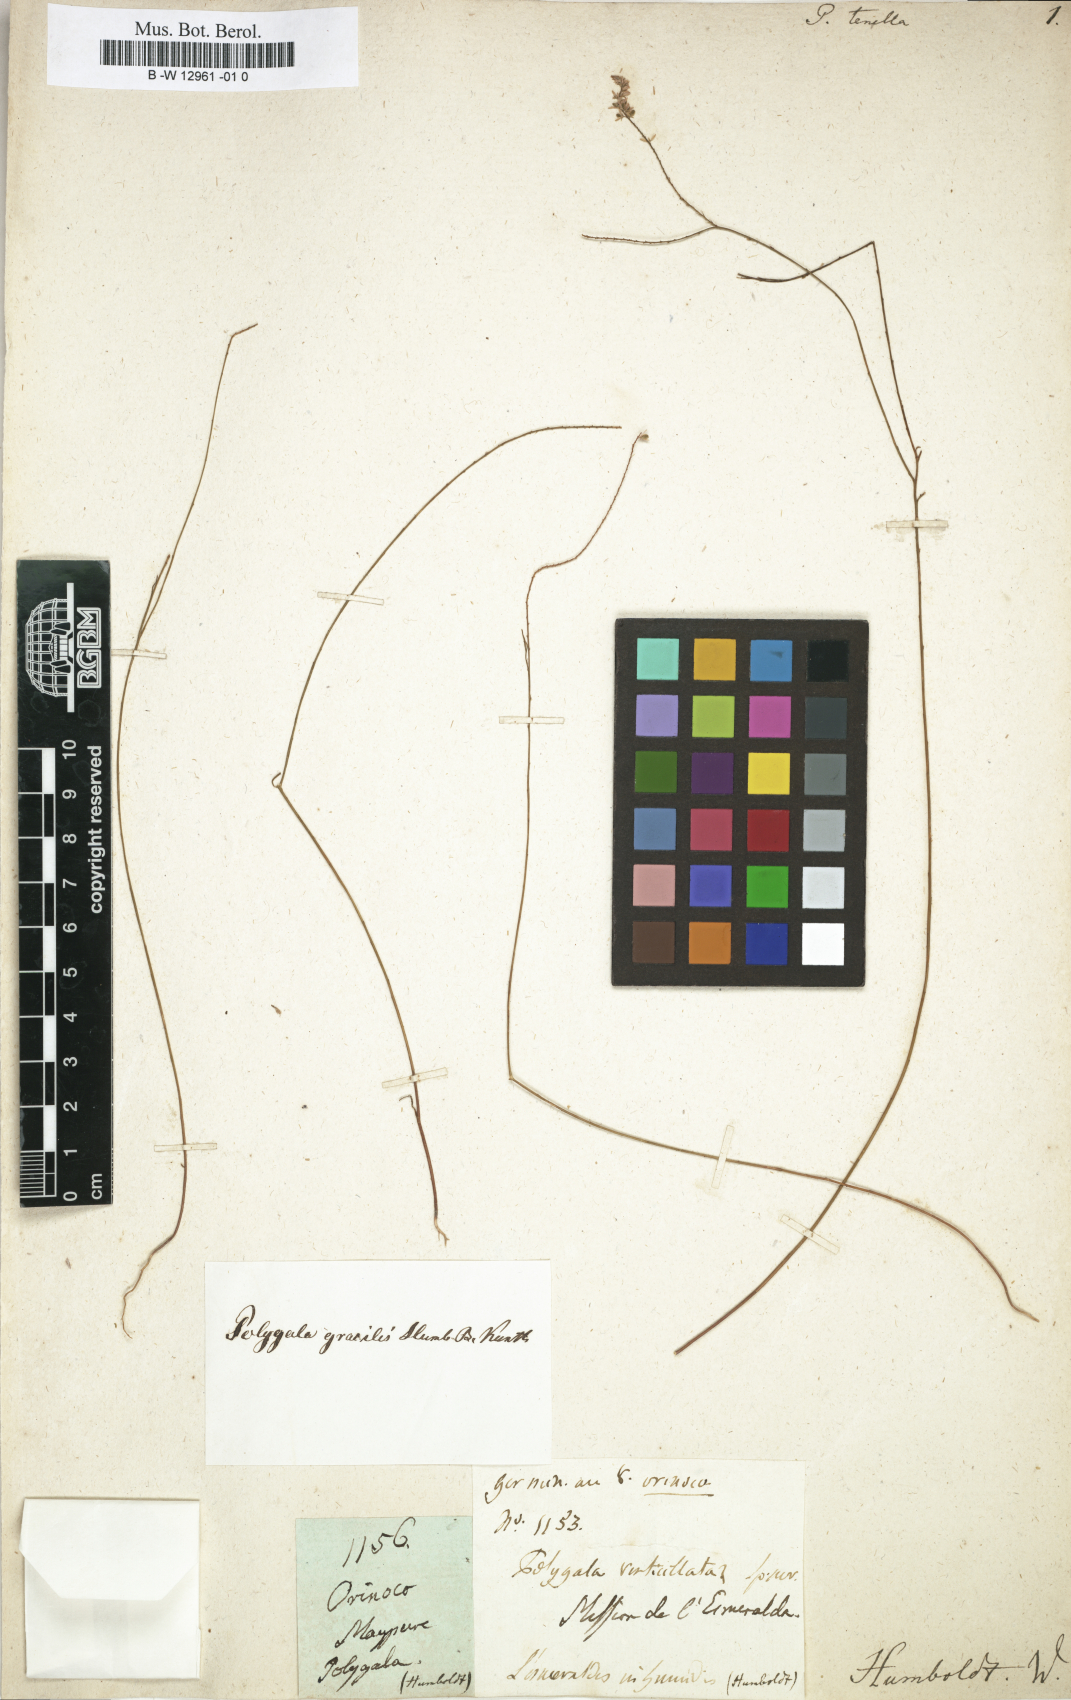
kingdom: Plantae
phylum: Tracheophyta
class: Magnoliopsida
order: Fabales
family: Polygalaceae
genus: Polygala
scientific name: Polygala tenella
